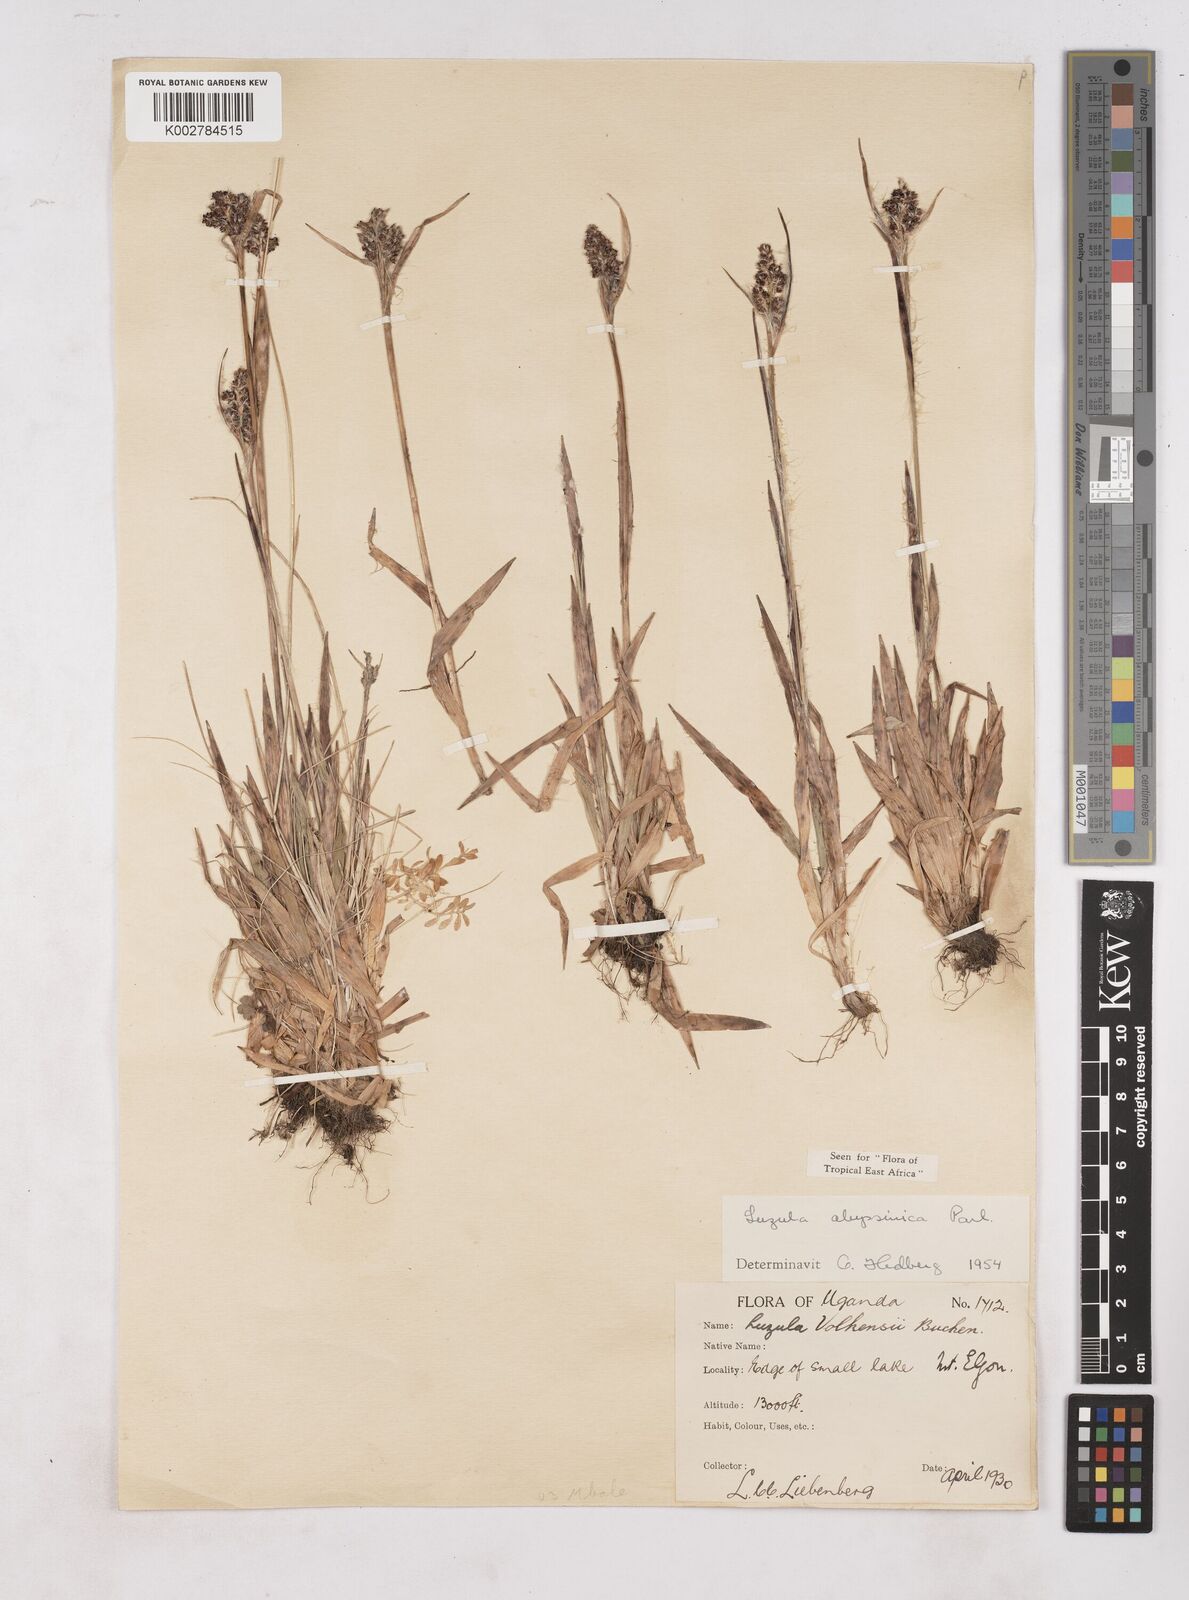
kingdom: Plantae
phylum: Tracheophyta
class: Liliopsida
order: Poales
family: Juncaceae
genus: Luzula
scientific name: Luzula abyssinica
